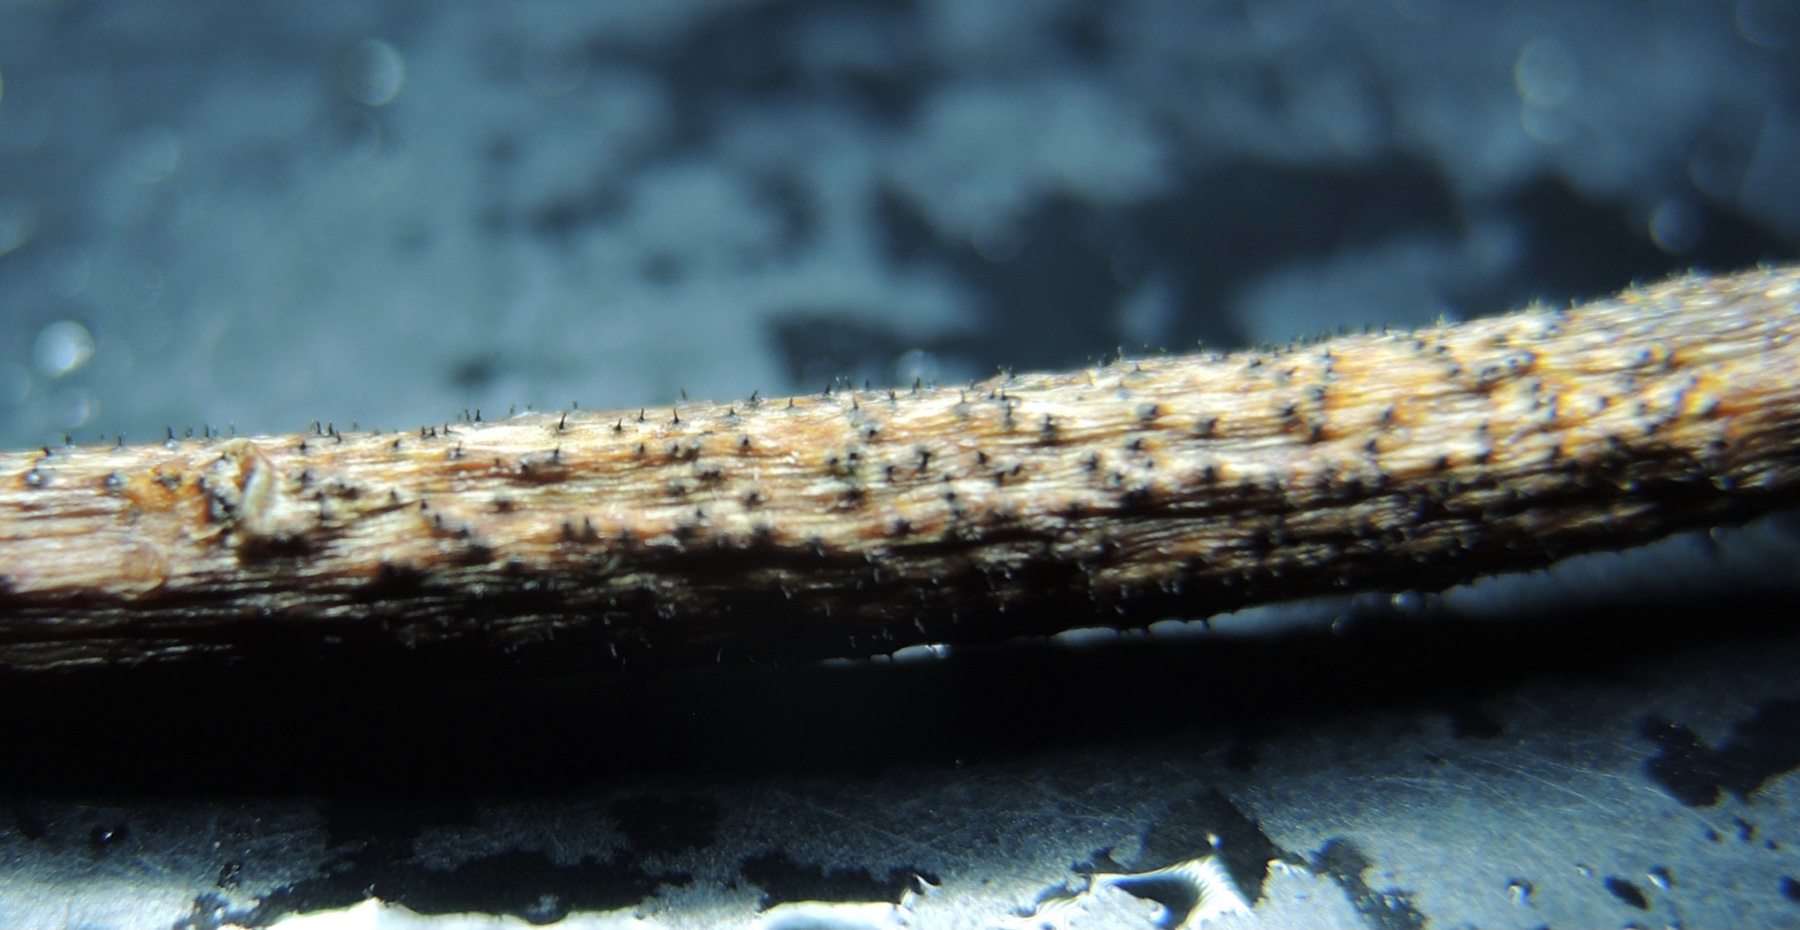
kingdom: Fungi
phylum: Ascomycota
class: Sordariomycetes
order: Diaporthales
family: Gnomoniaceae
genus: Apiognomonia
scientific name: Apiognomonia hystrix
